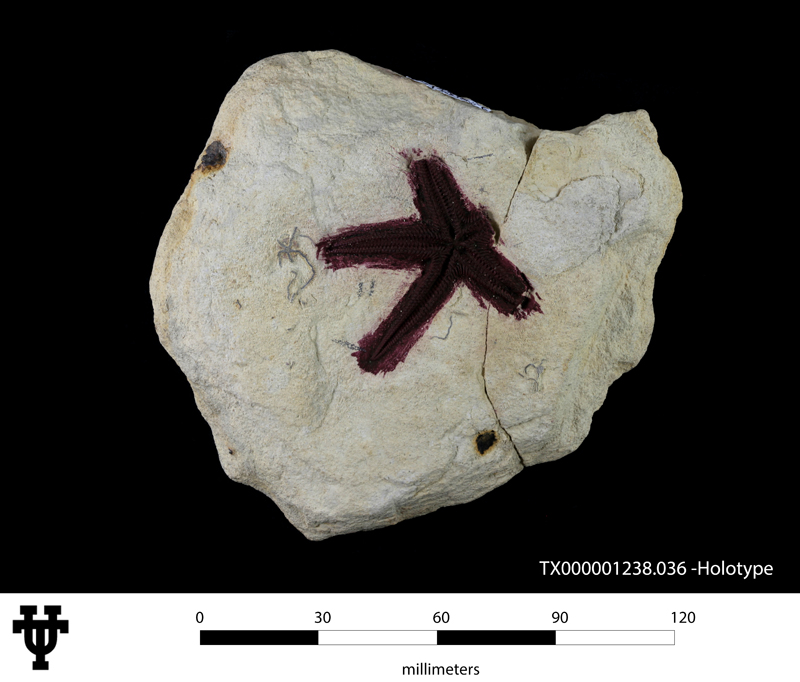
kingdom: Animalia
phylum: Echinodermata
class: Asteroidea
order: Paxillosida
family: Astropectinidae
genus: Astrocratis
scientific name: Astrocratis acutispina
